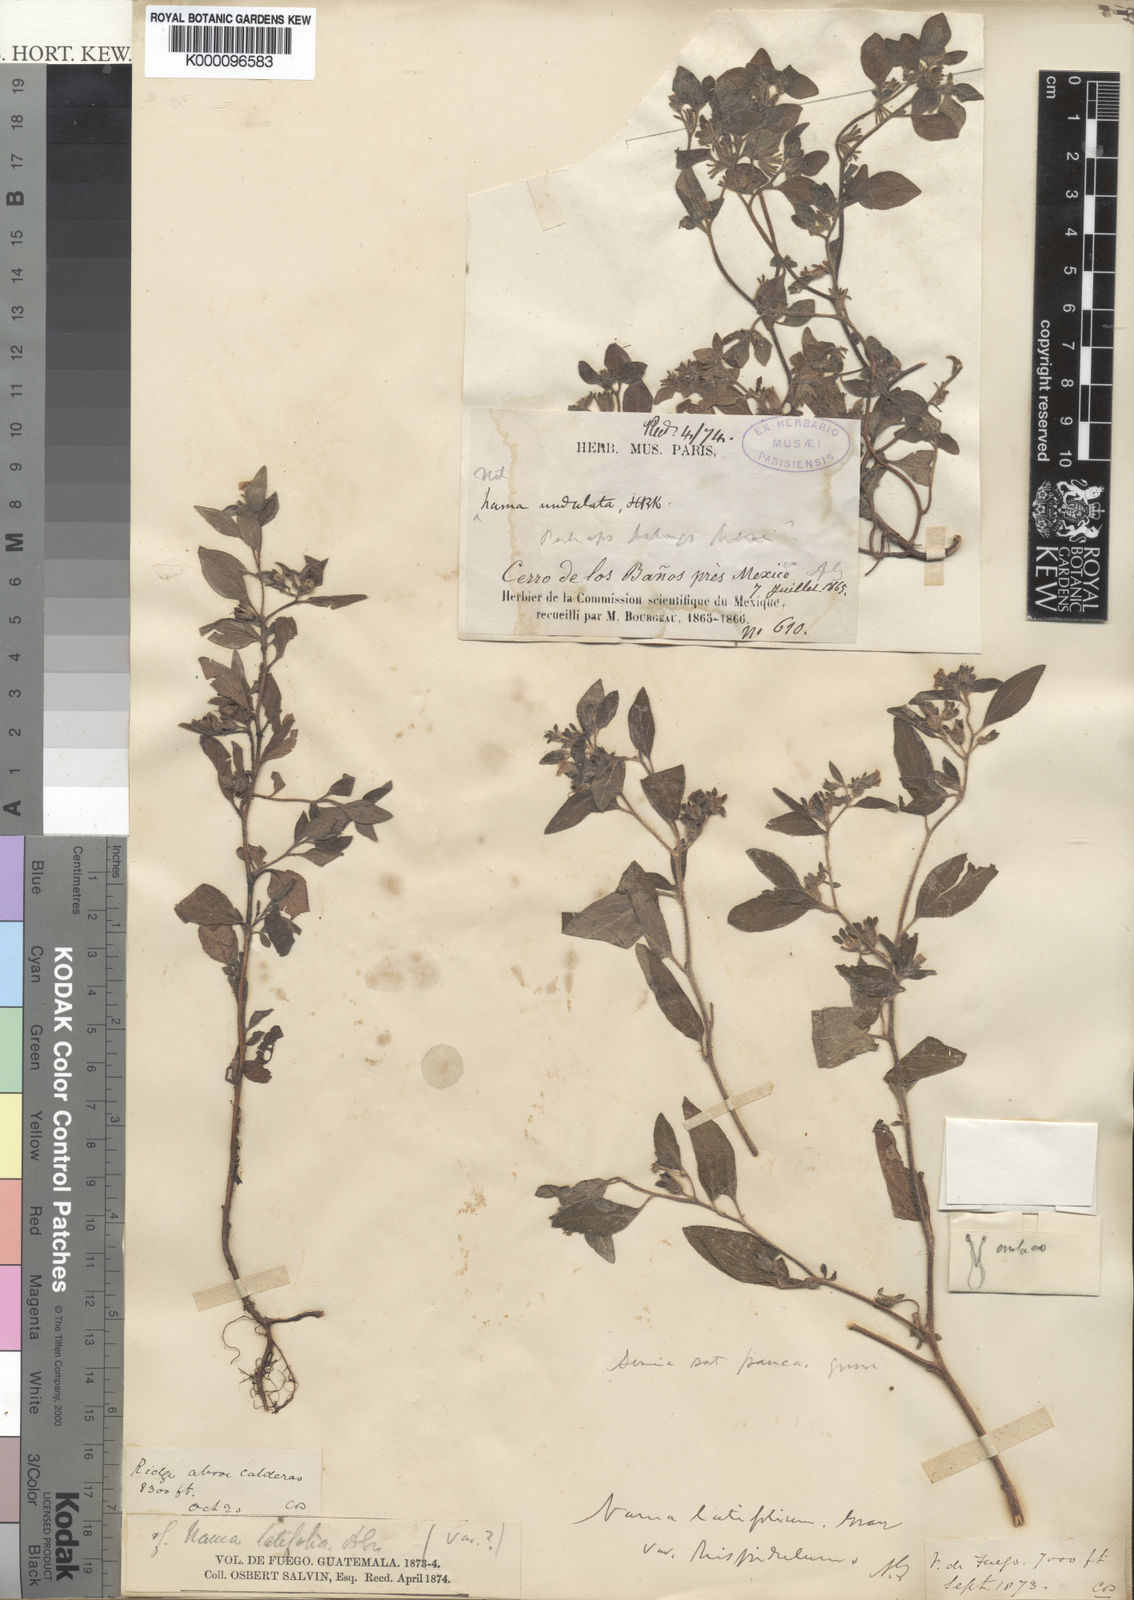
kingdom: Plantae
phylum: Tracheophyta
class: Magnoliopsida
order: Boraginales
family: Namaceae
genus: Nama
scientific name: Nama dichotoma
